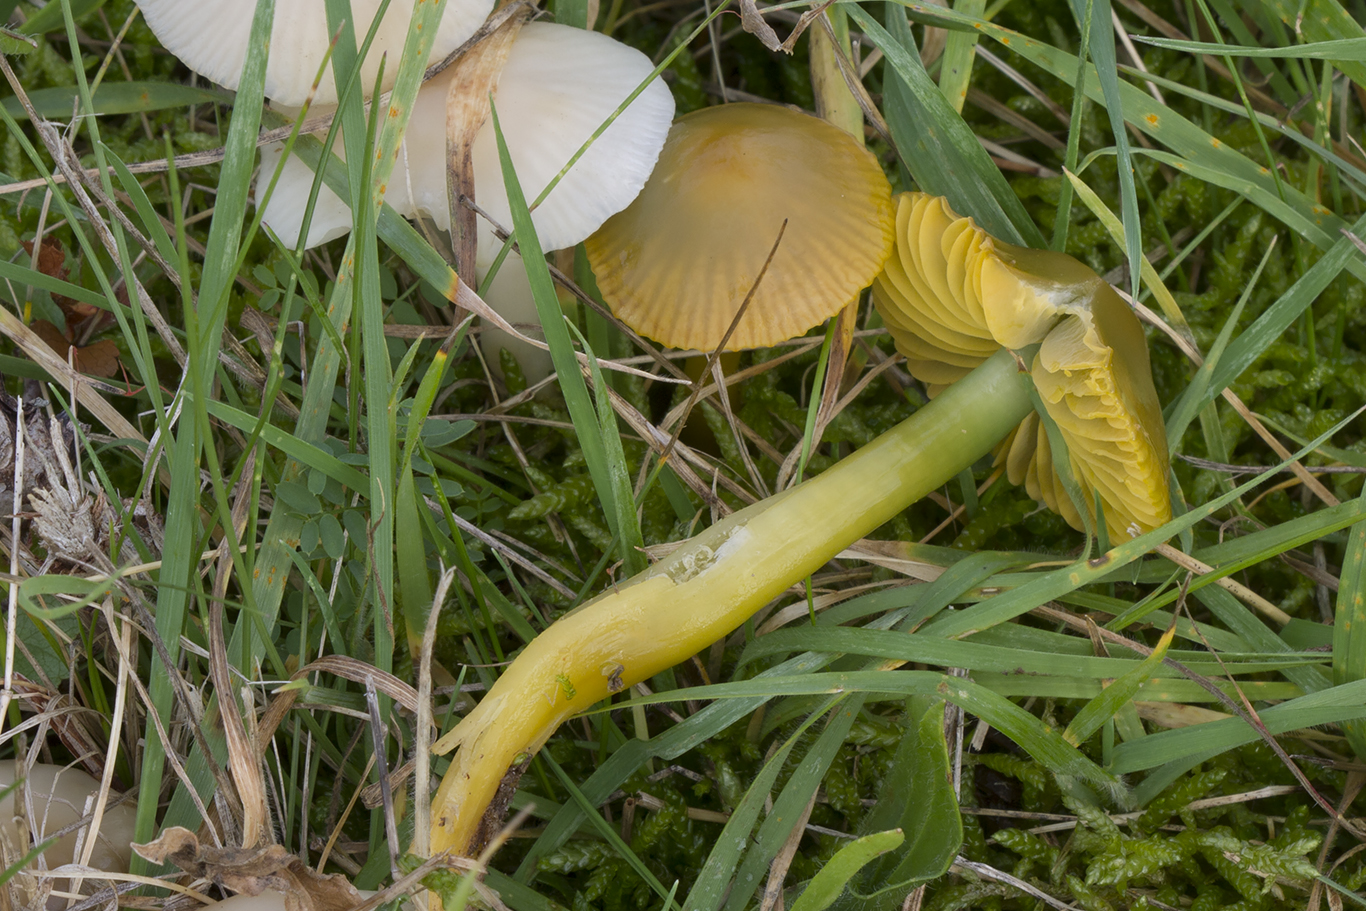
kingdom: Fungi
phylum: Basidiomycota
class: Agaricomycetes
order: Agaricales
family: Hygrophoraceae
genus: Gliophorus
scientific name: Gliophorus psittacinus
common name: papegøje-vokshat
